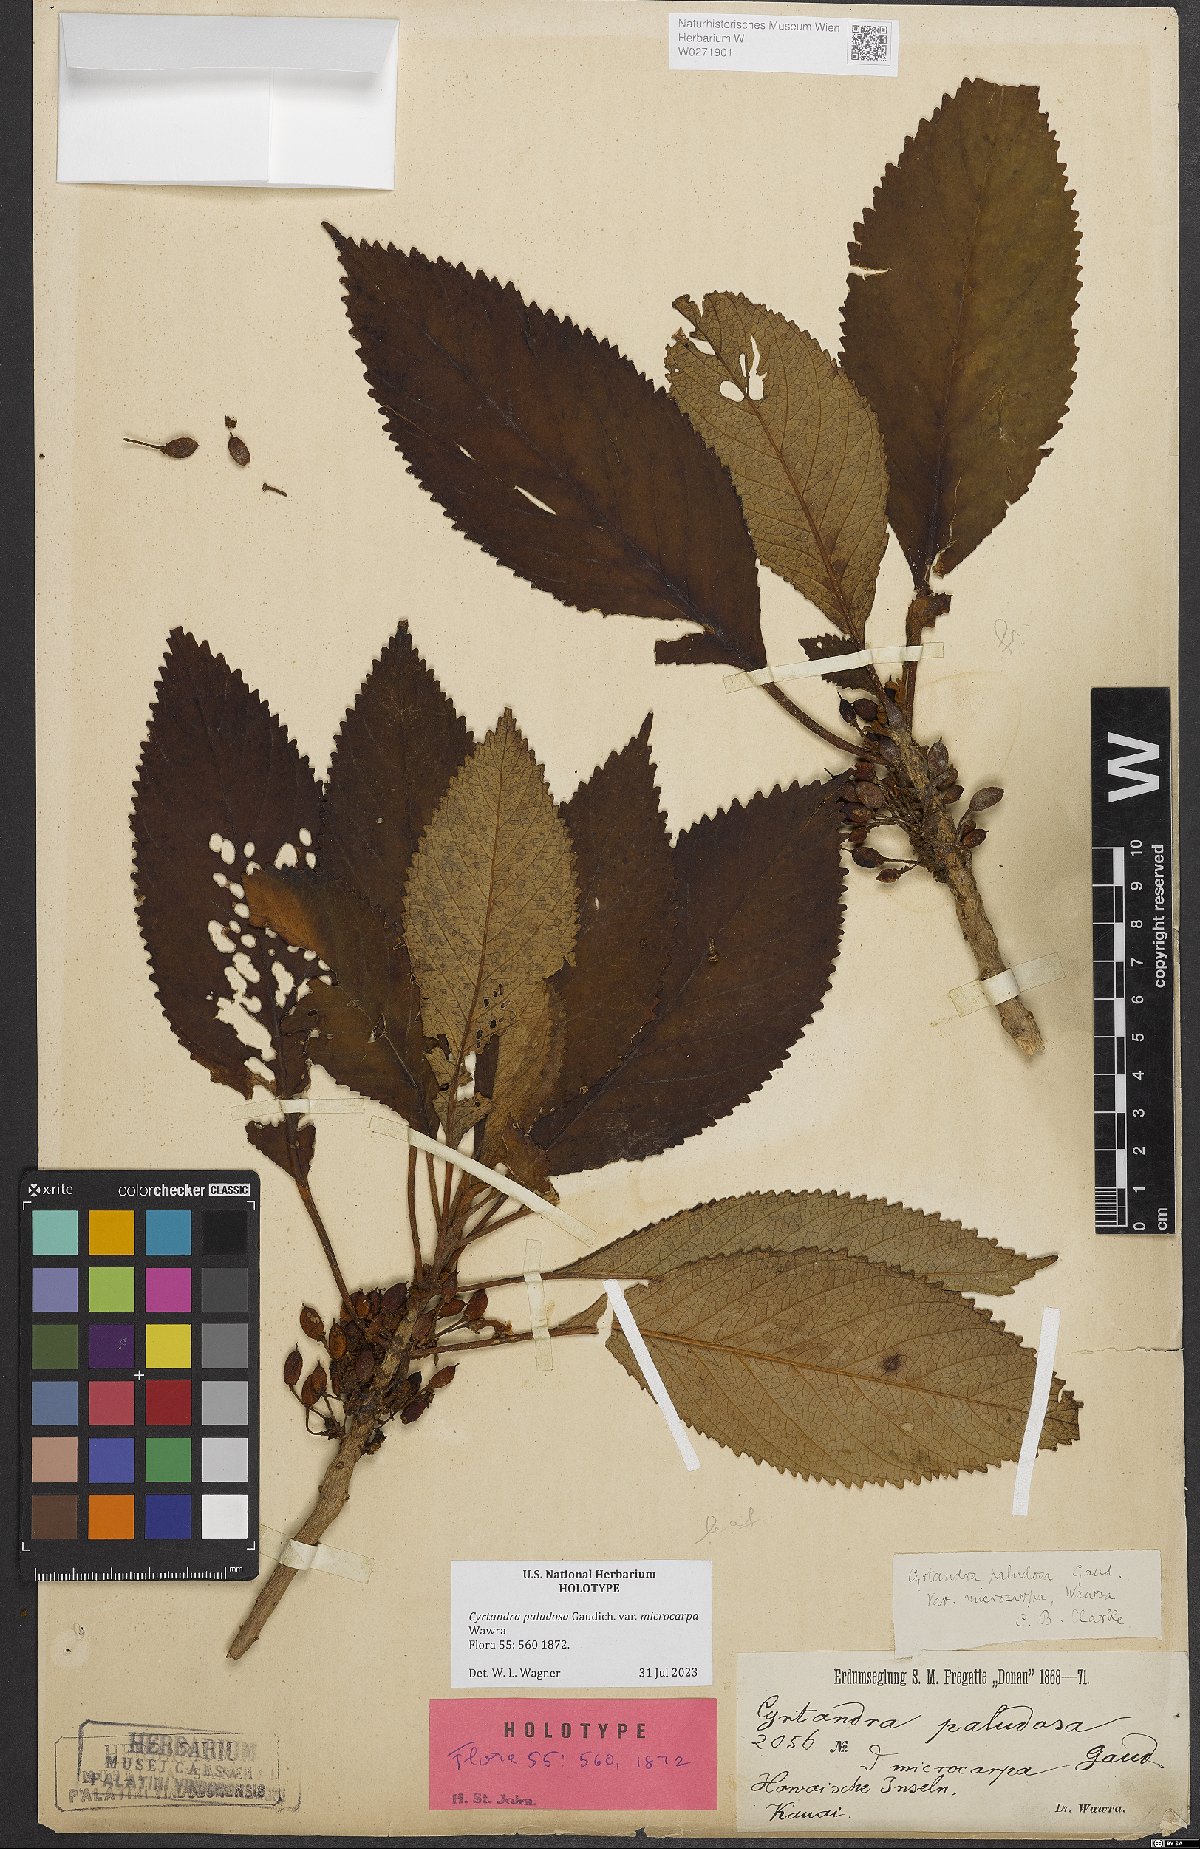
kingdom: Plantae
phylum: Tracheophyta
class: Magnoliopsida
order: Lamiales
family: Gesneriaceae
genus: Cyrtandra
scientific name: Cyrtandra paludosa
